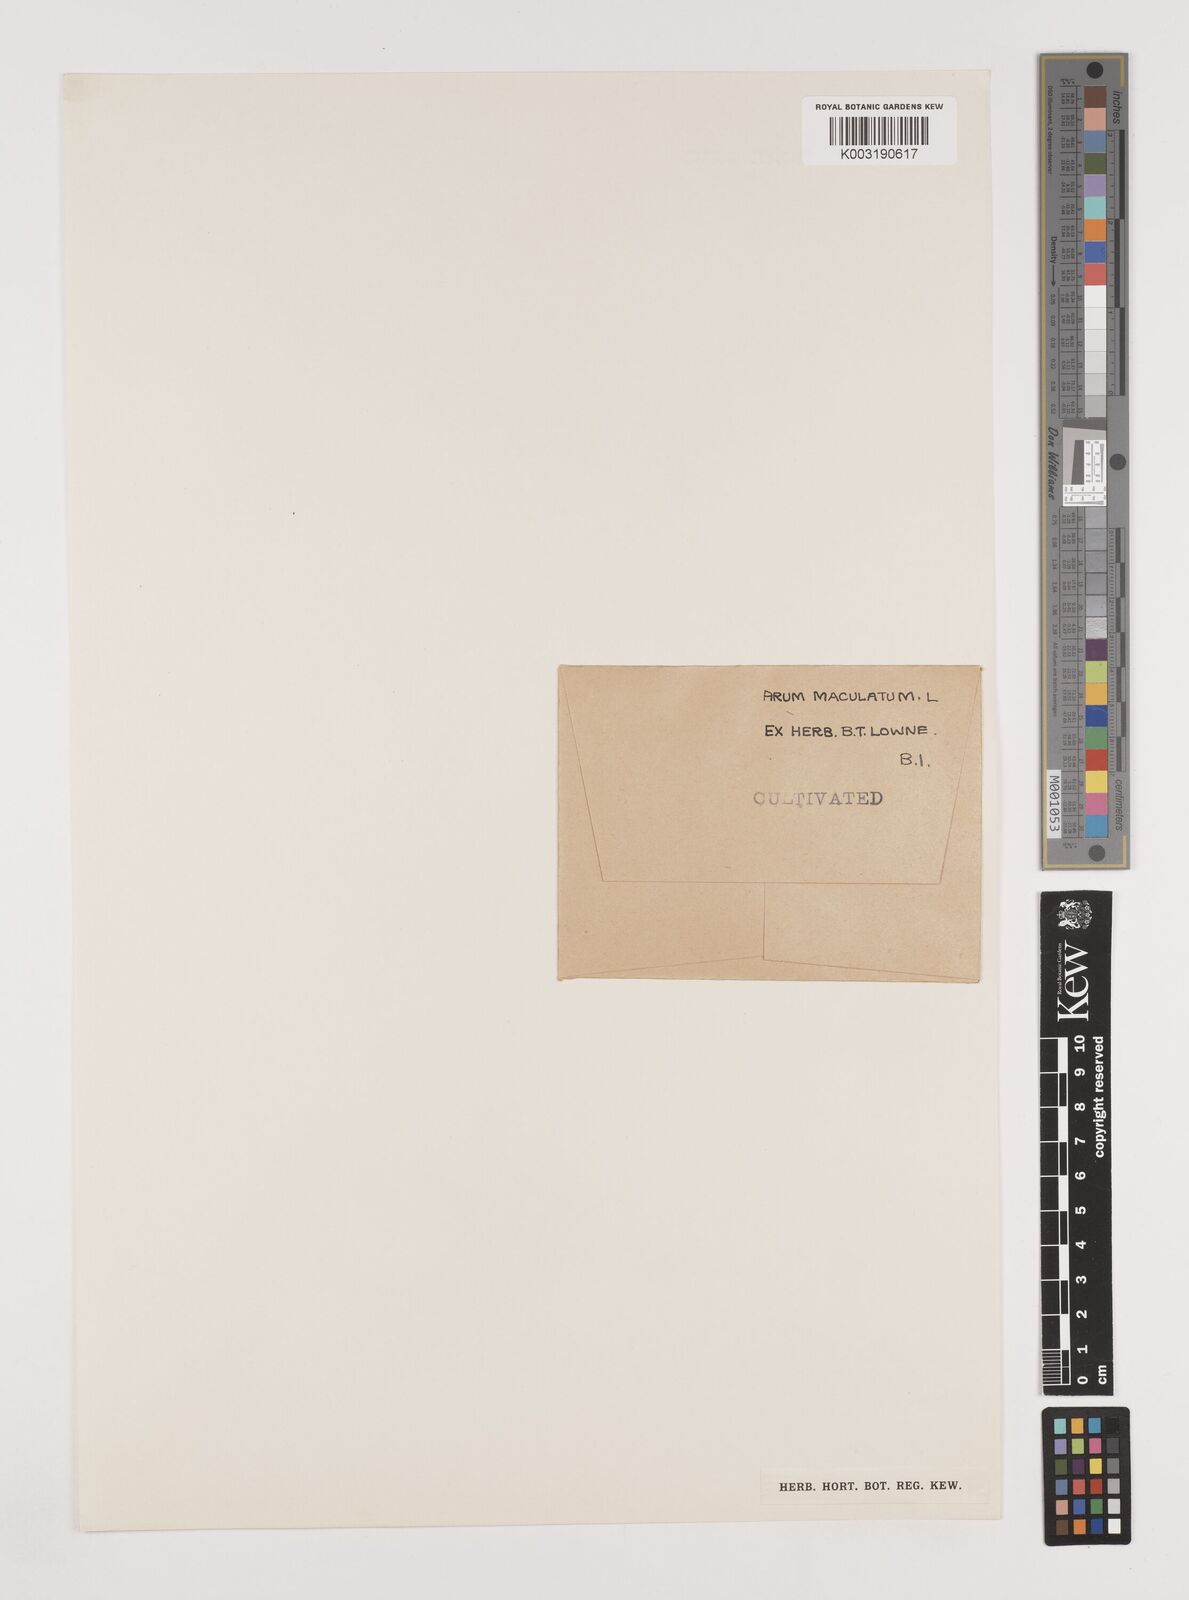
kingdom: Plantae
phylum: Tracheophyta
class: Liliopsida
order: Alismatales
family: Araceae
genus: Arum
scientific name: Arum maculatum
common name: Lords-and-ladies
